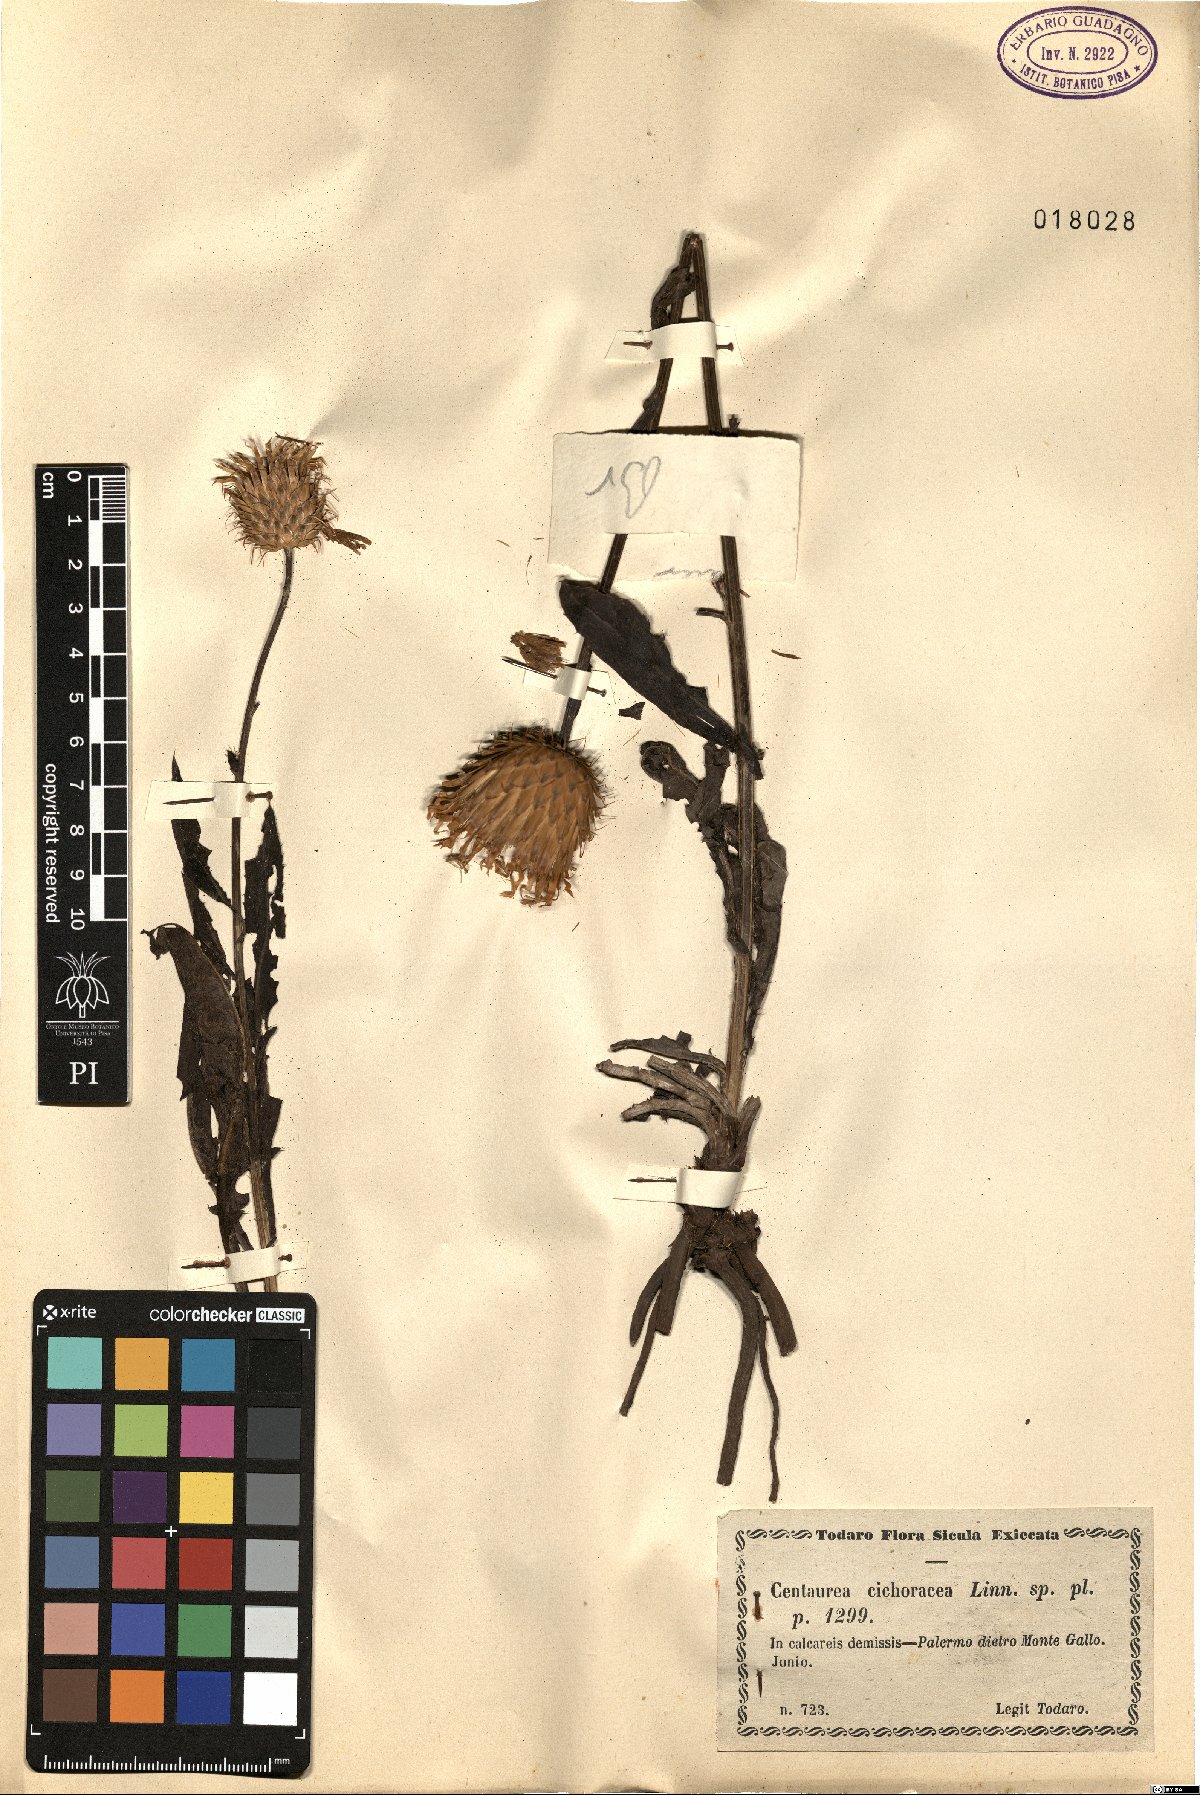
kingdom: Plantae
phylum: Tracheophyta
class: Magnoliopsida
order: Asterales
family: Asteraceae
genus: Klasea
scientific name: Klasea flavescens
